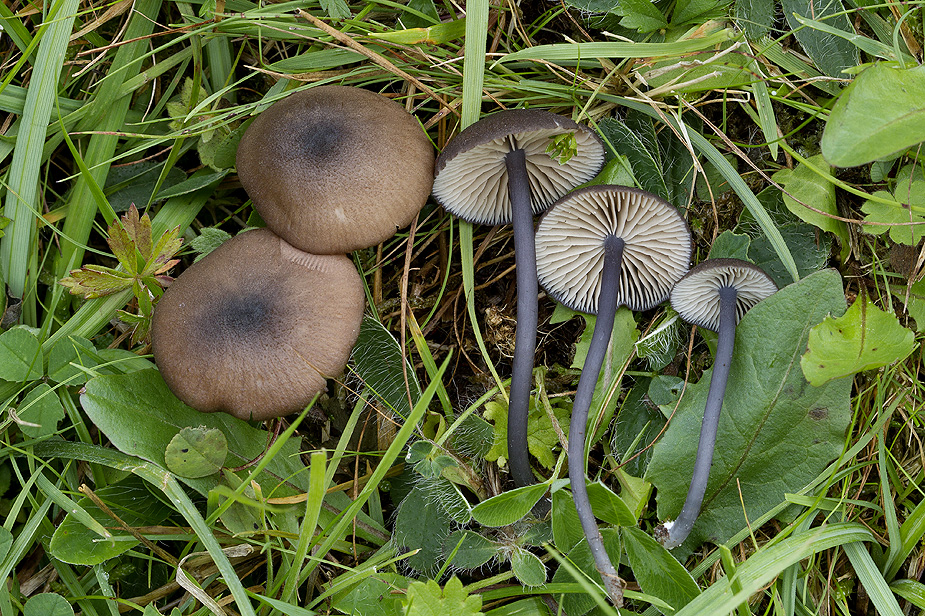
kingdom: Fungi
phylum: Basidiomycota
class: Agaricomycetes
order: Agaricales
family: Entolomataceae
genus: Entoloma
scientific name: Entoloma atrocoeruleum
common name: sortblå rødblad
